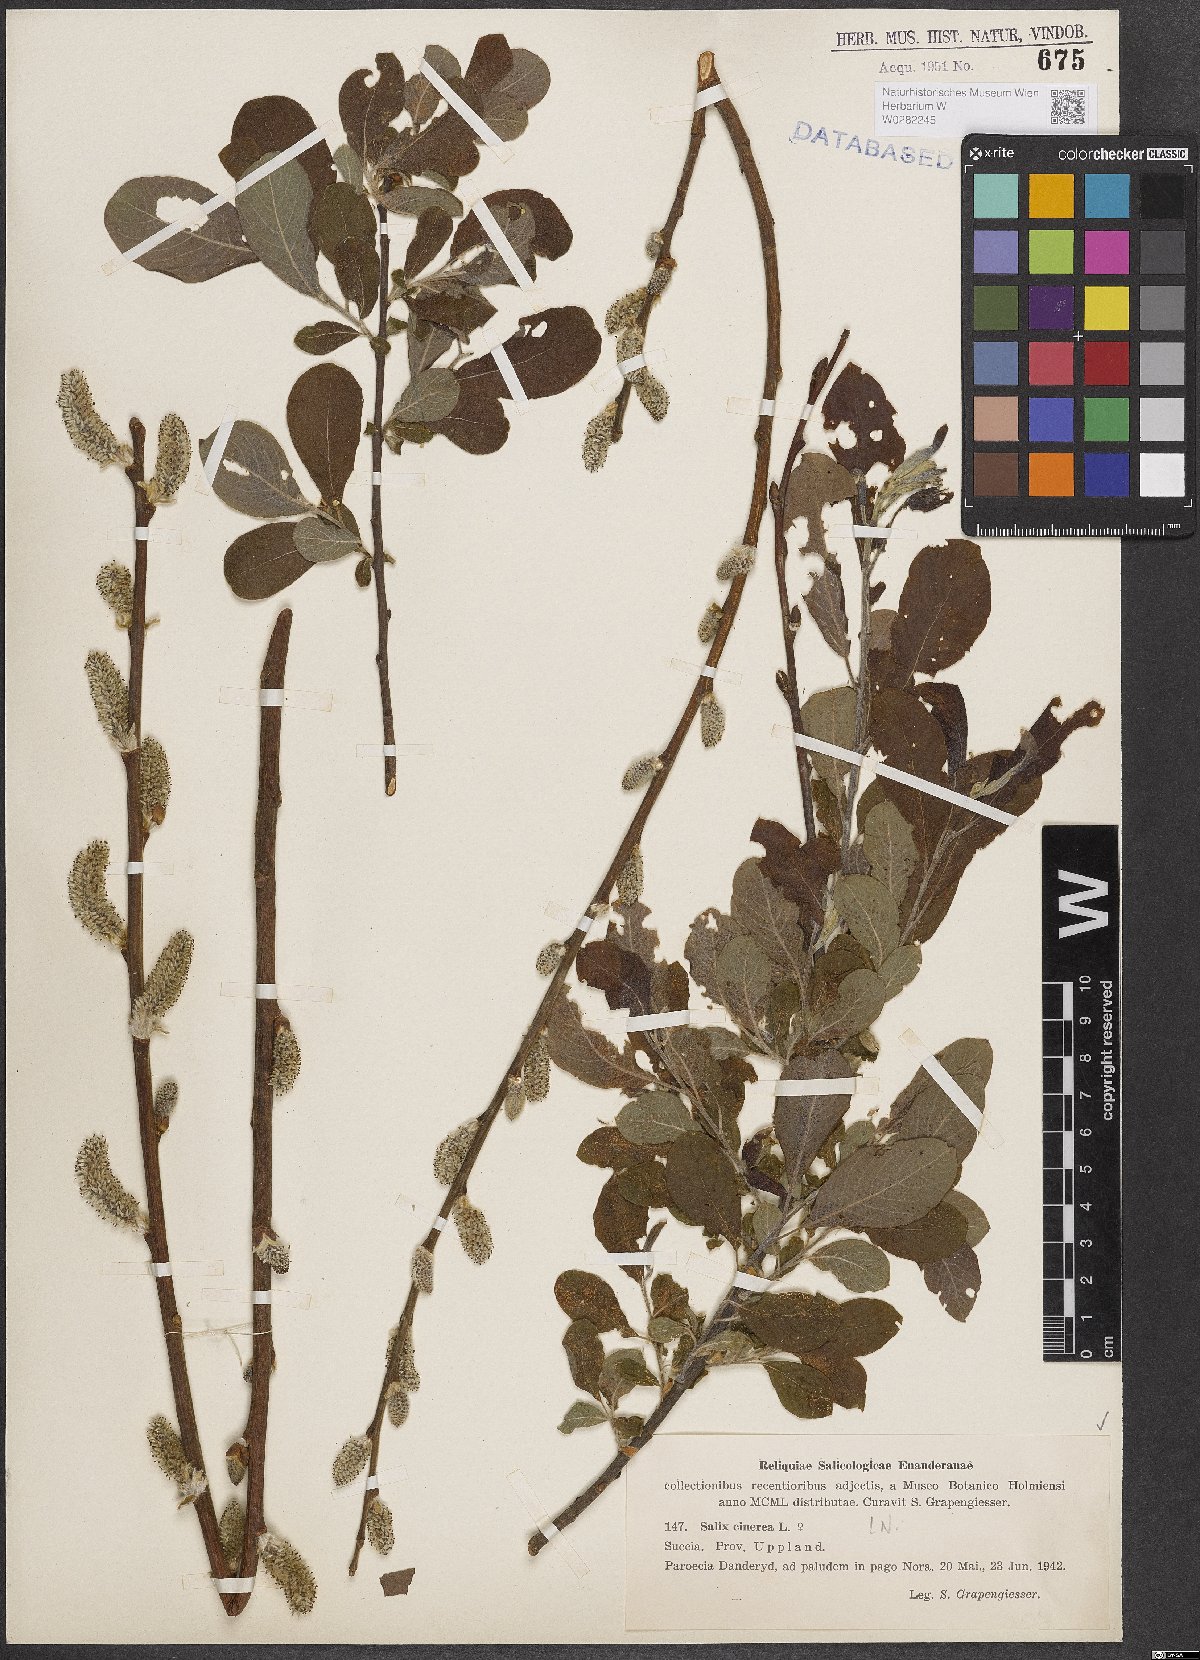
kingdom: Plantae
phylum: Tracheophyta
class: Magnoliopsida
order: Malpighiales
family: Salicaceae
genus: Salix
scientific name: Salix cinerea
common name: Common sallow
